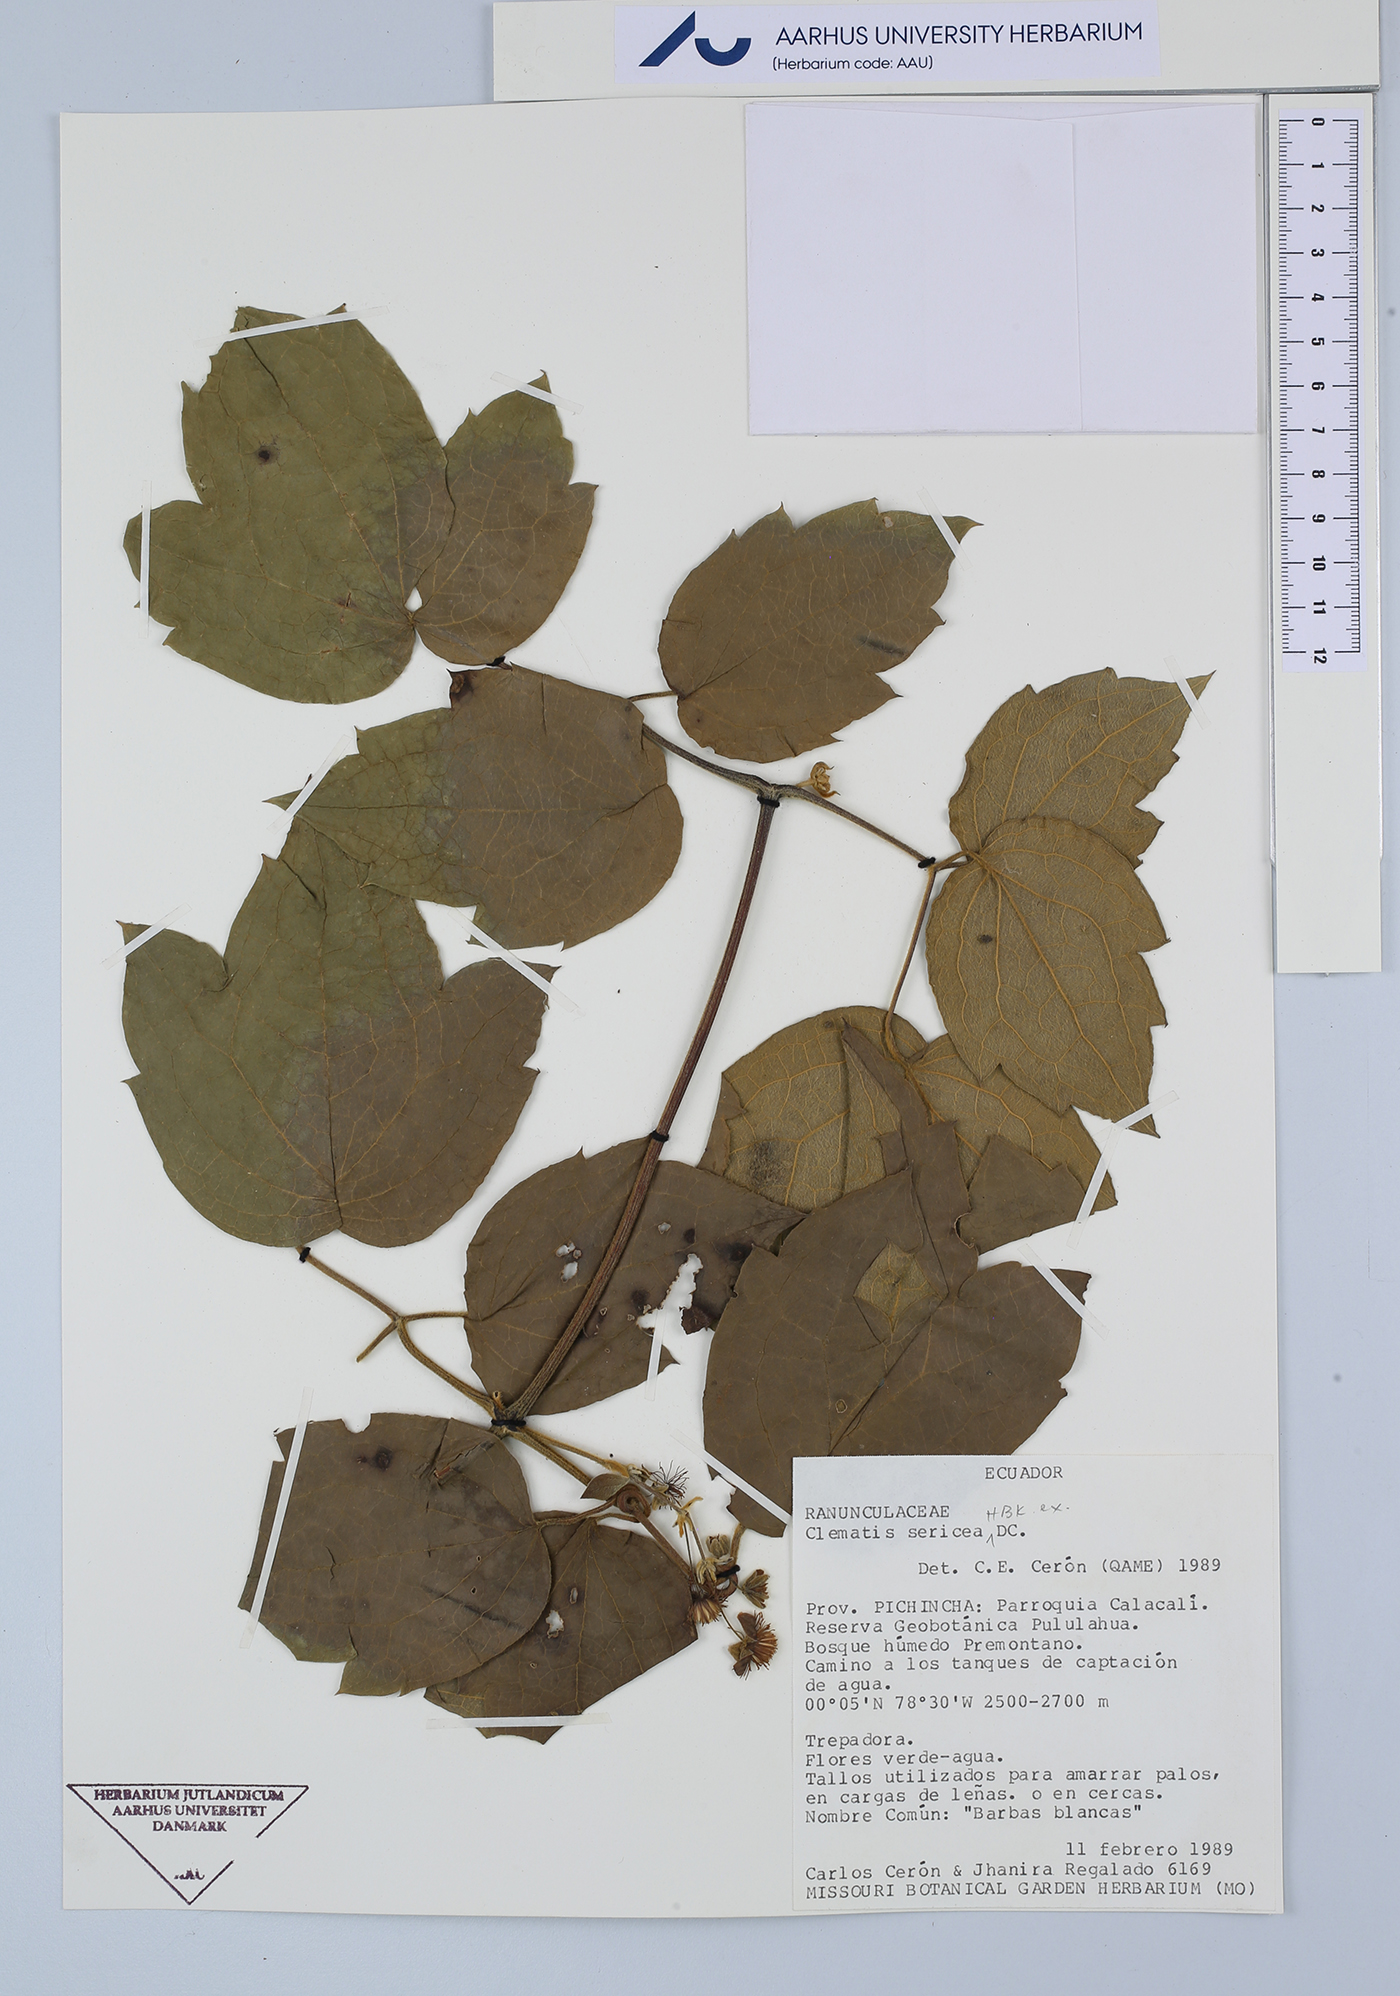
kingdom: Plantae
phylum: Tracheophyta
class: Magnoliopsida
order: Ranunculales
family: Ranunculaceae
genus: Clematis
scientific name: Clematis haenkeana
